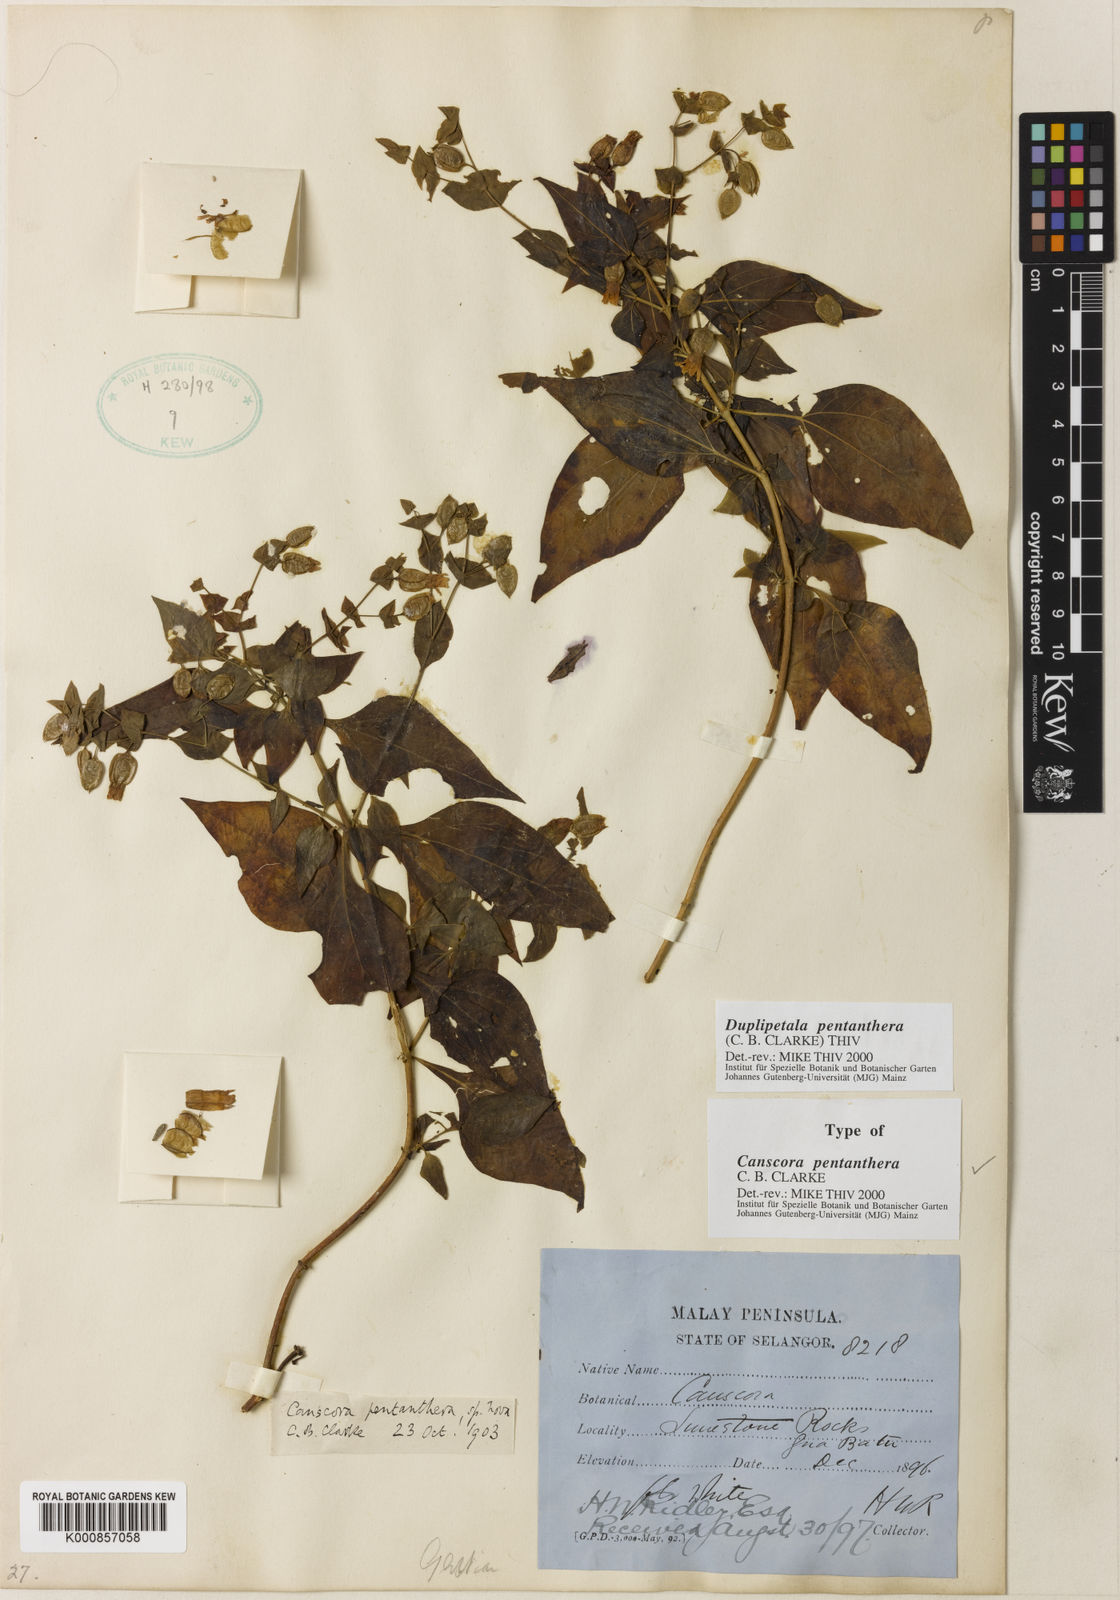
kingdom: Plantae
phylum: Tracheophyta
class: Magnoliopsida
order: Gentianales
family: Gentianaceae
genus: Cracosna
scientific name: Cracosna
